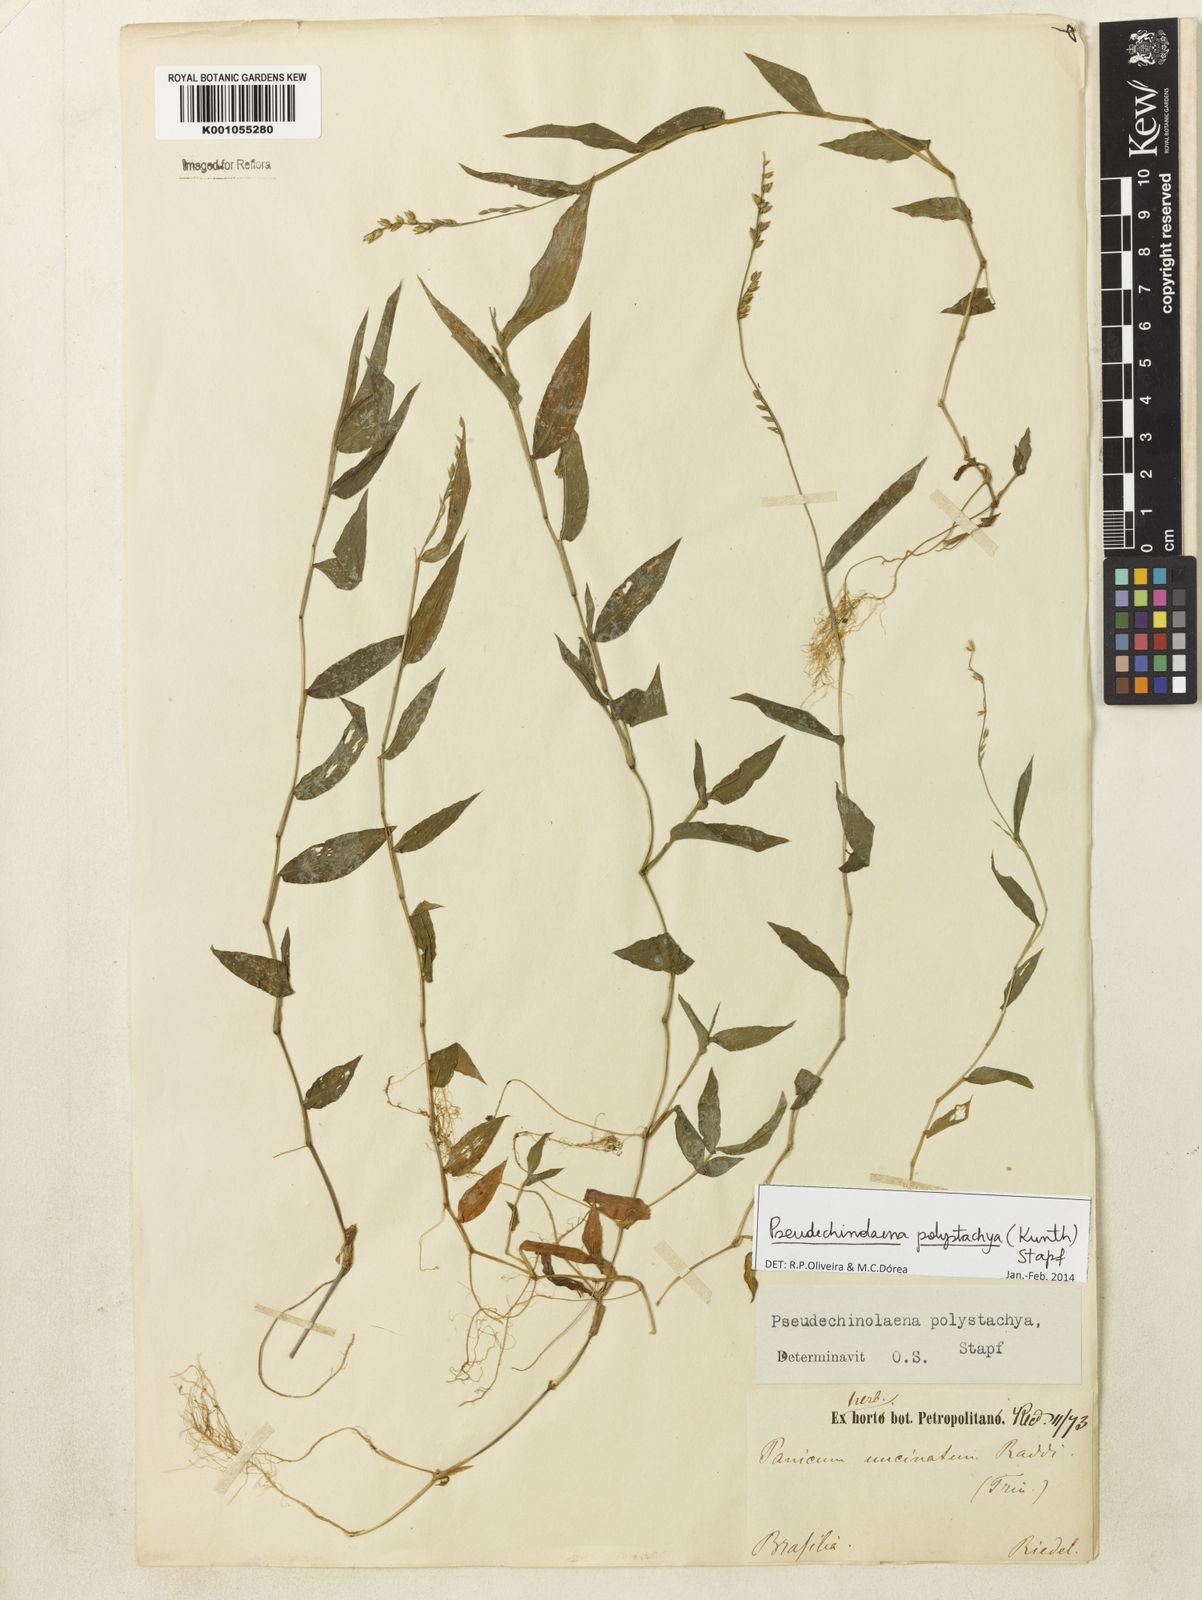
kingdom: Plantae
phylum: Tracheophyta
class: Liliopsida
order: Poales
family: Poaceae
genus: Pseudechinolaena
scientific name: Pseudechinolaena polystachya
